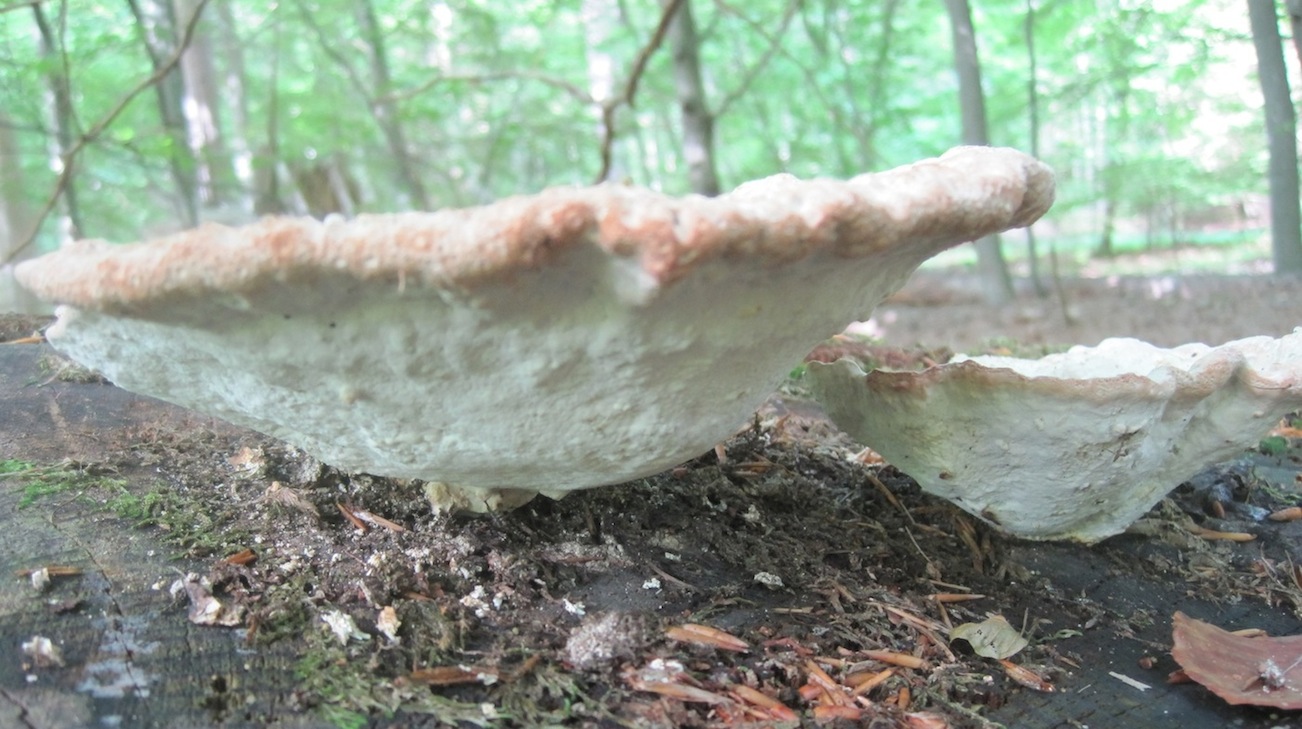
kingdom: Fungi
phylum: Basidiomycota
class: Agaricomycetes
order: Polyporales
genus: Calcipostia
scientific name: Calcipostia guttulata
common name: dråbe-kødporesvamp
